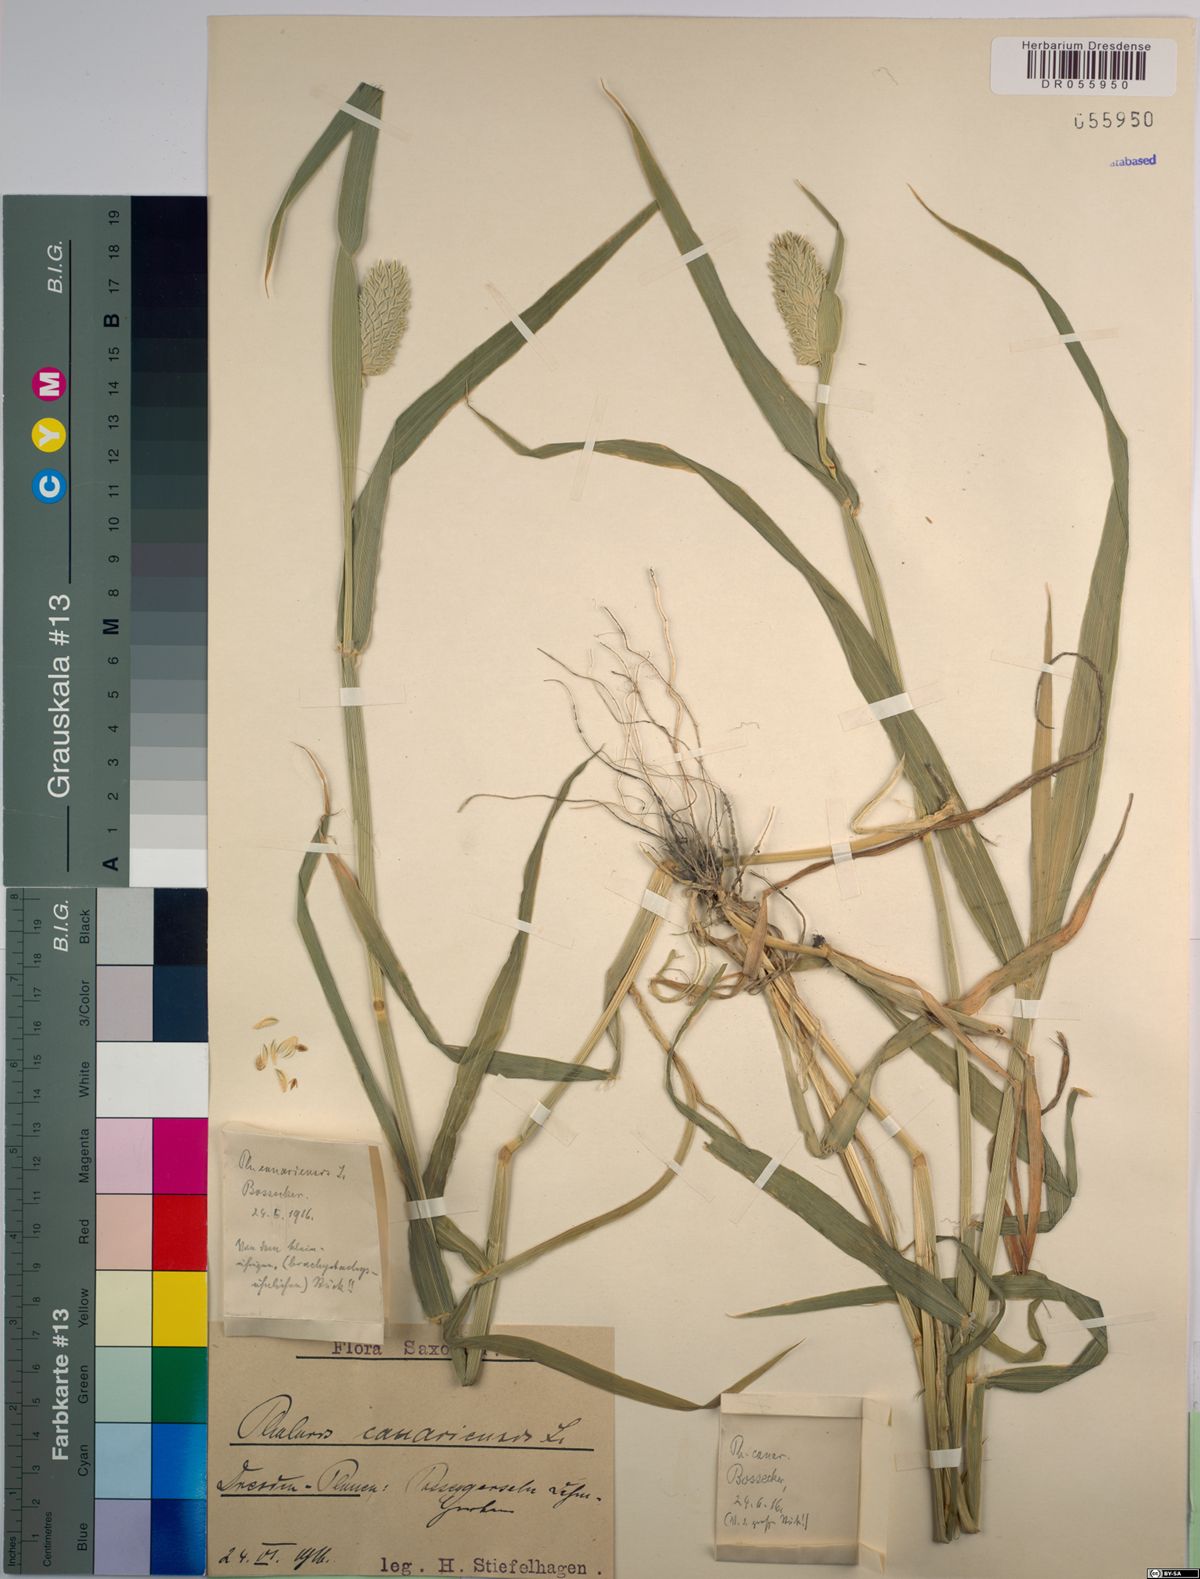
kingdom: Plantae
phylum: Tracheophyta
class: Liliopsida
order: Poales
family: Poaceae
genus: Phalaris
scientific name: Phalaris canariensis
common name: Annual canarygrass
